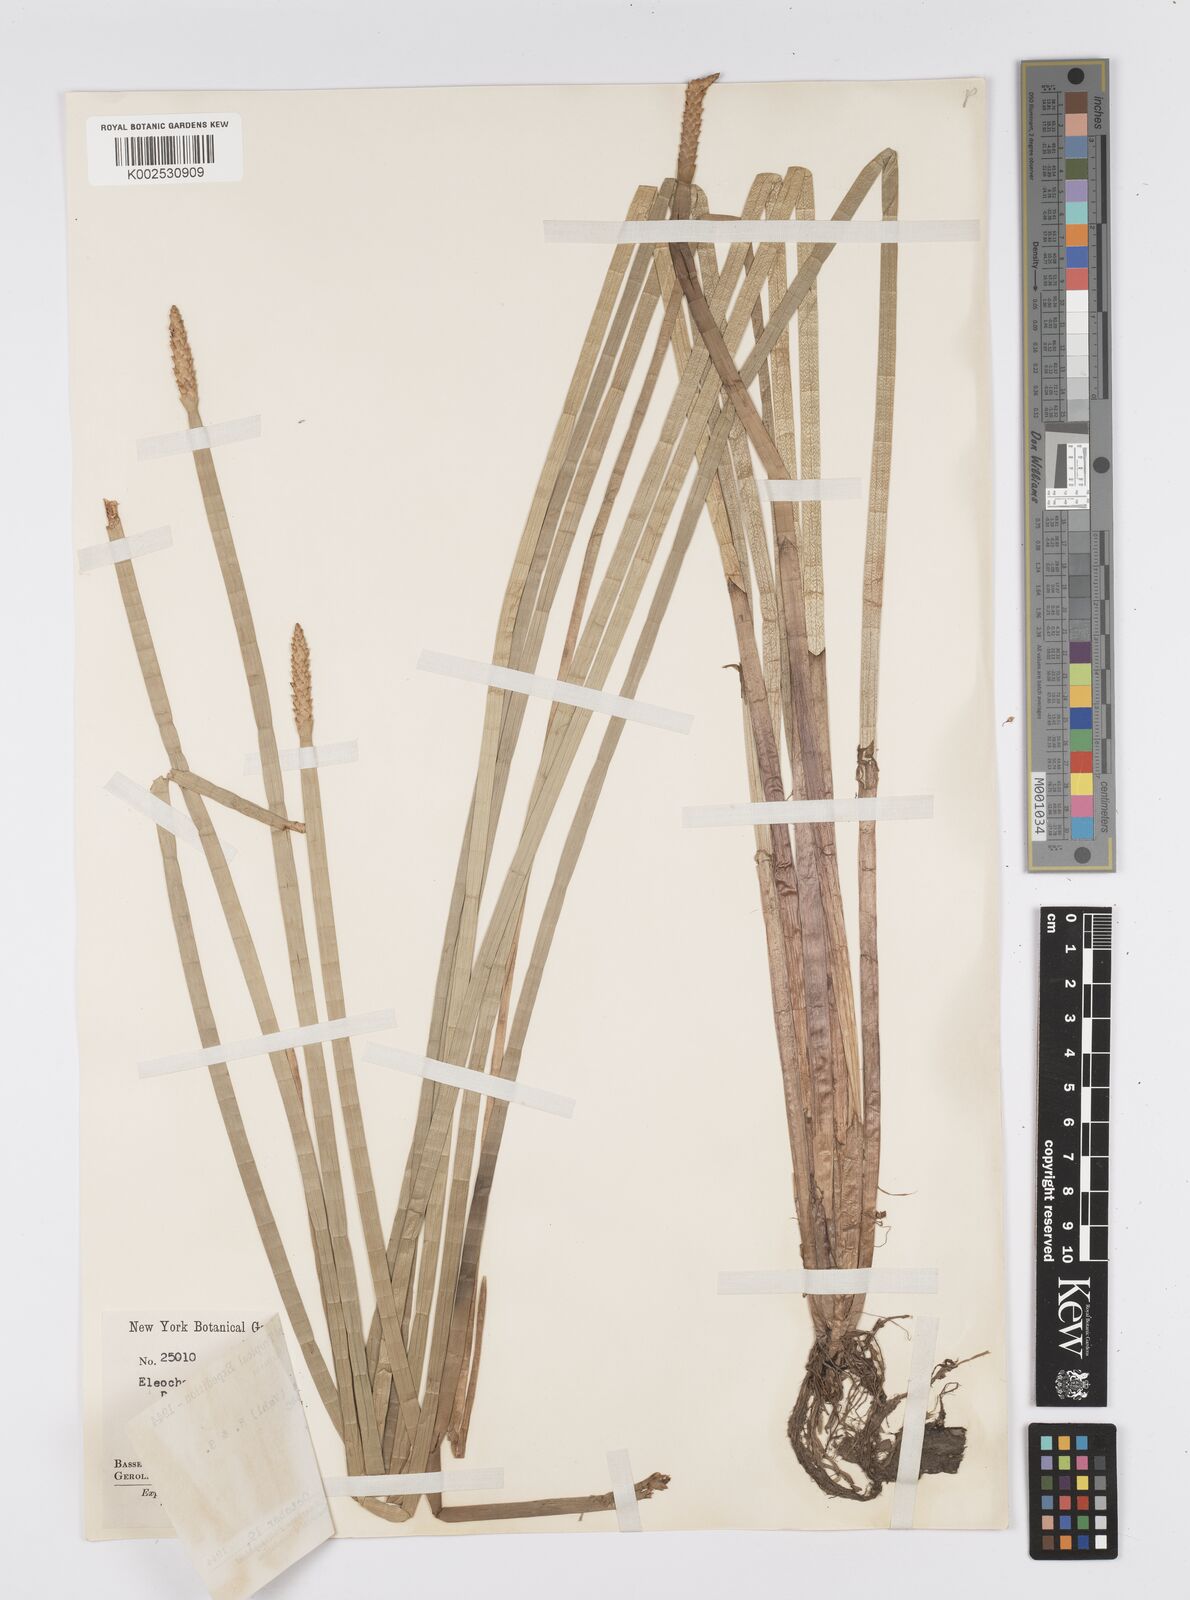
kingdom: Plantae
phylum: Tracheophyta
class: Liliopsida
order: Poales
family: Cyperaceae
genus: Eleocharis
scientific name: Eleocharis interstincta
